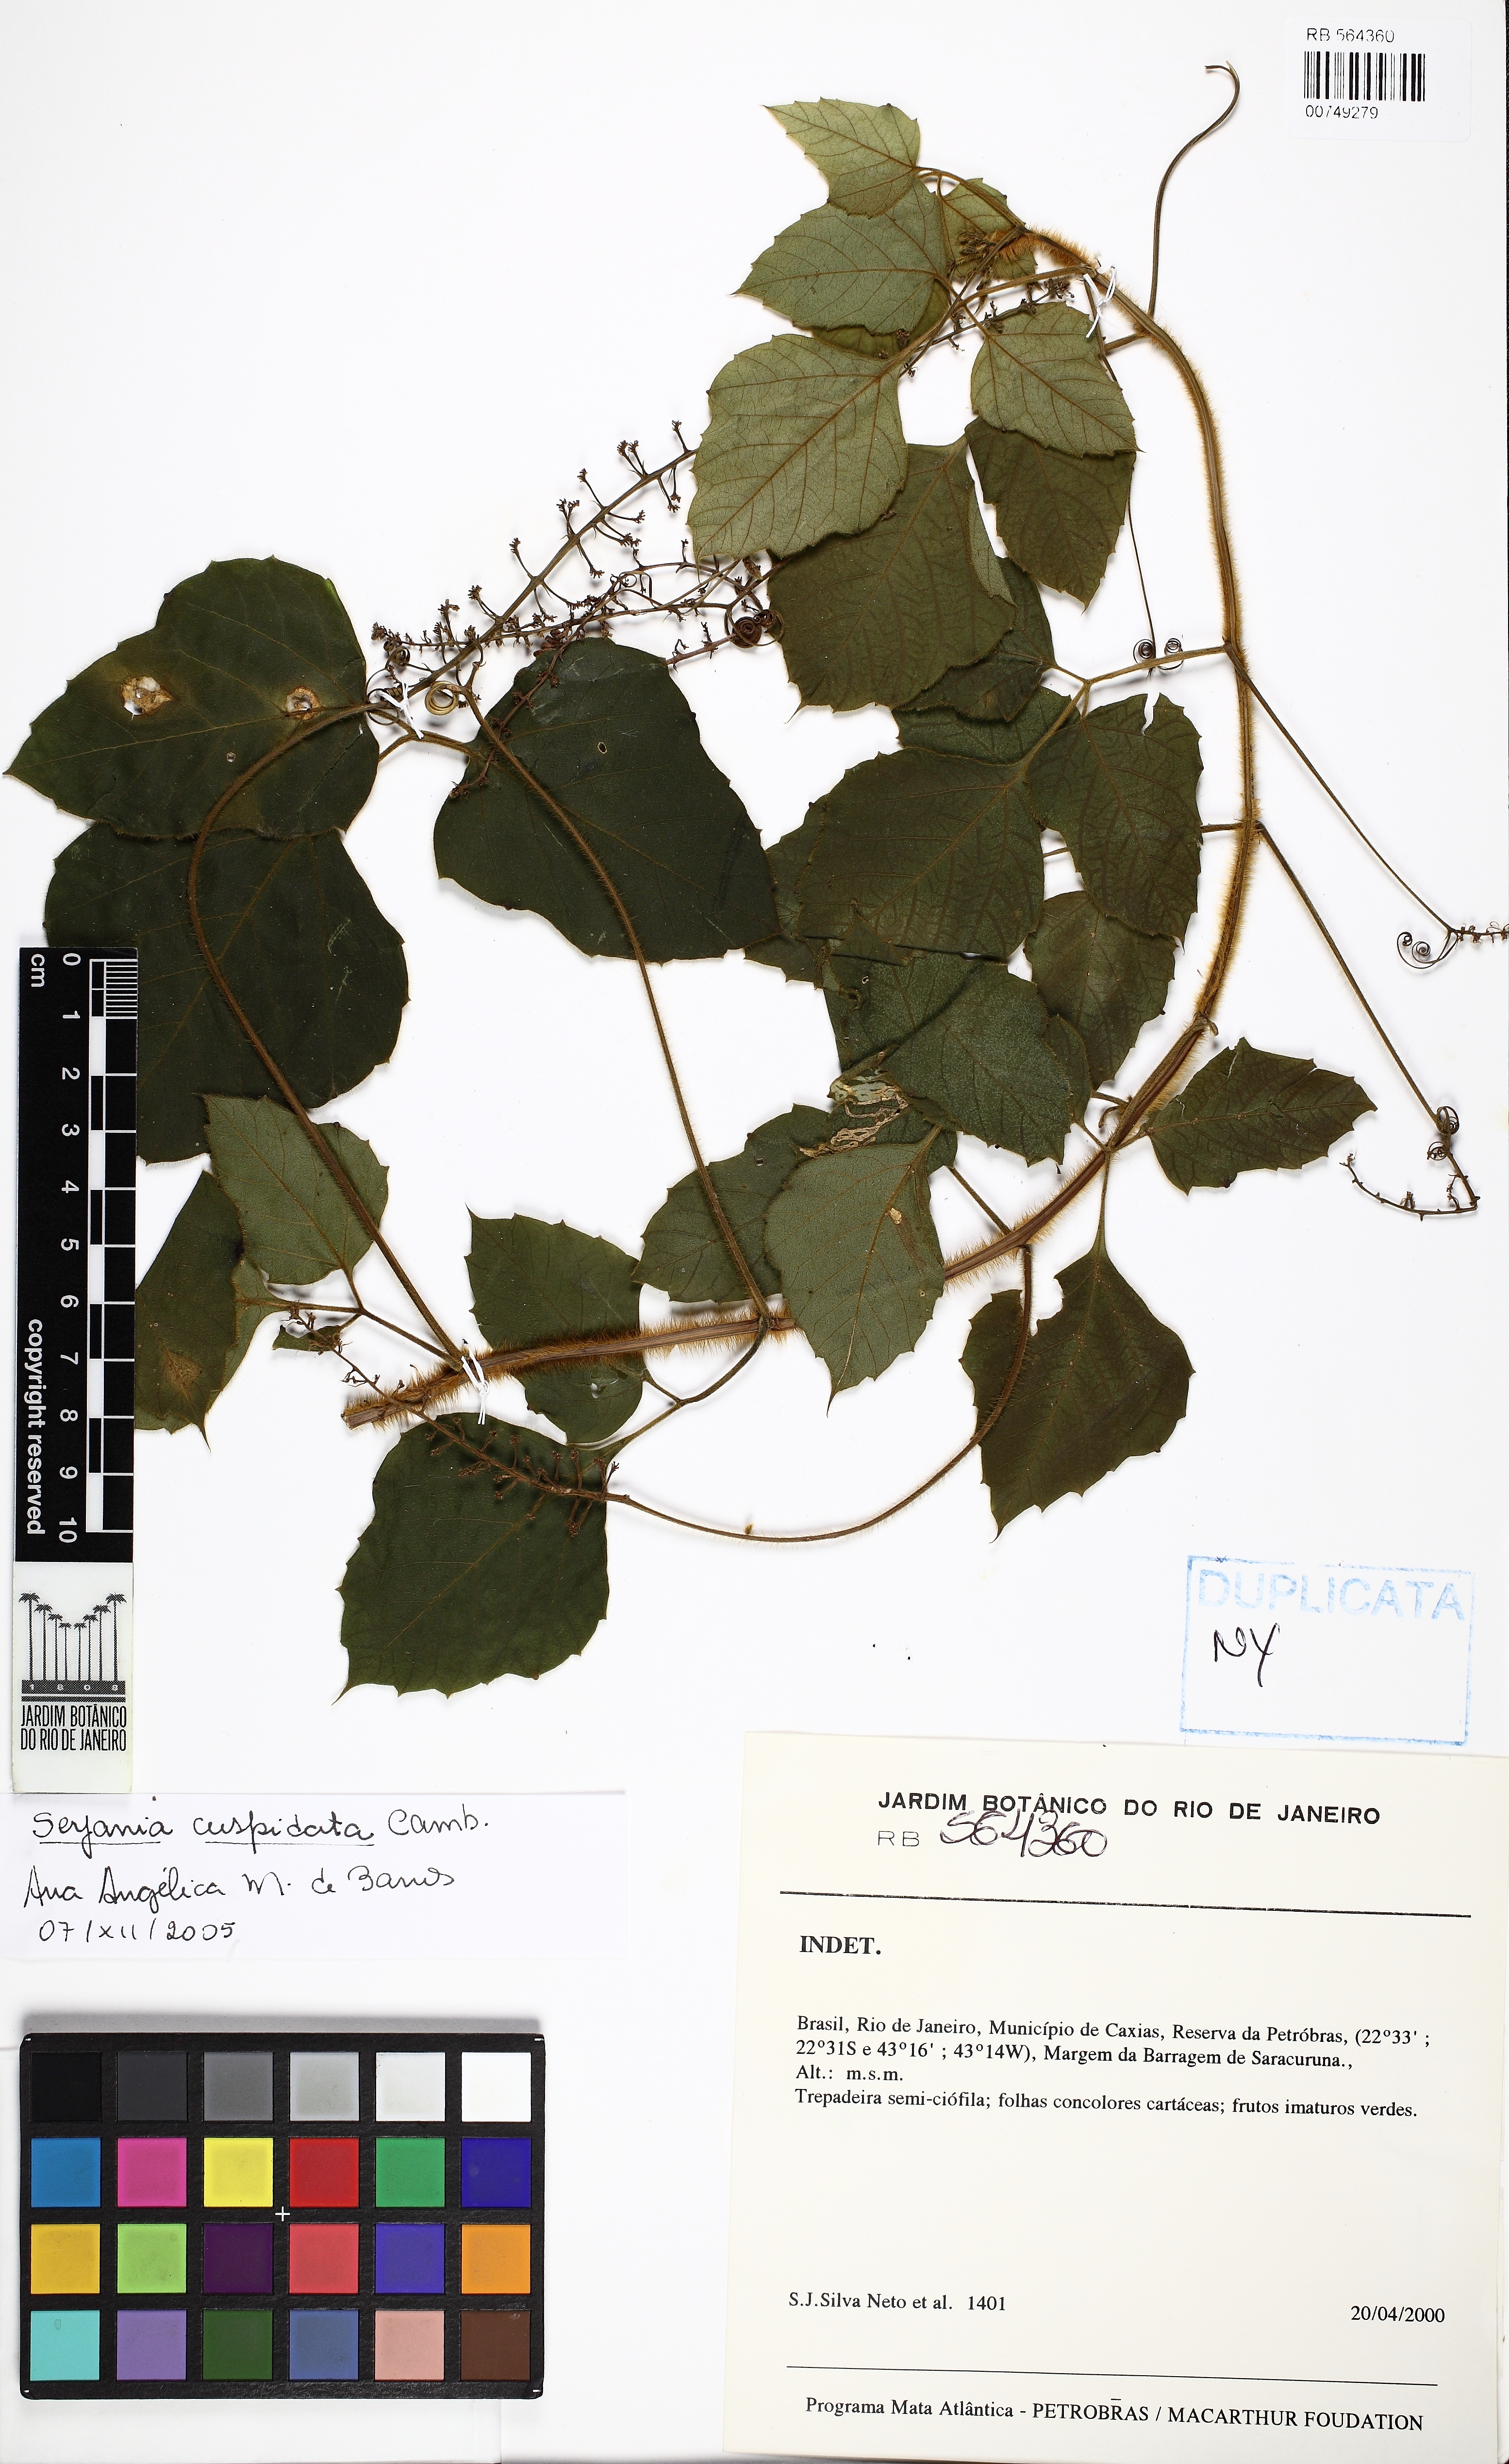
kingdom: Plantae
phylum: Tracheophyta
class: Magnoliopsida
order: Sapindales
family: Sapindaceae
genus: Serjania
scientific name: Serjania ferruginea
